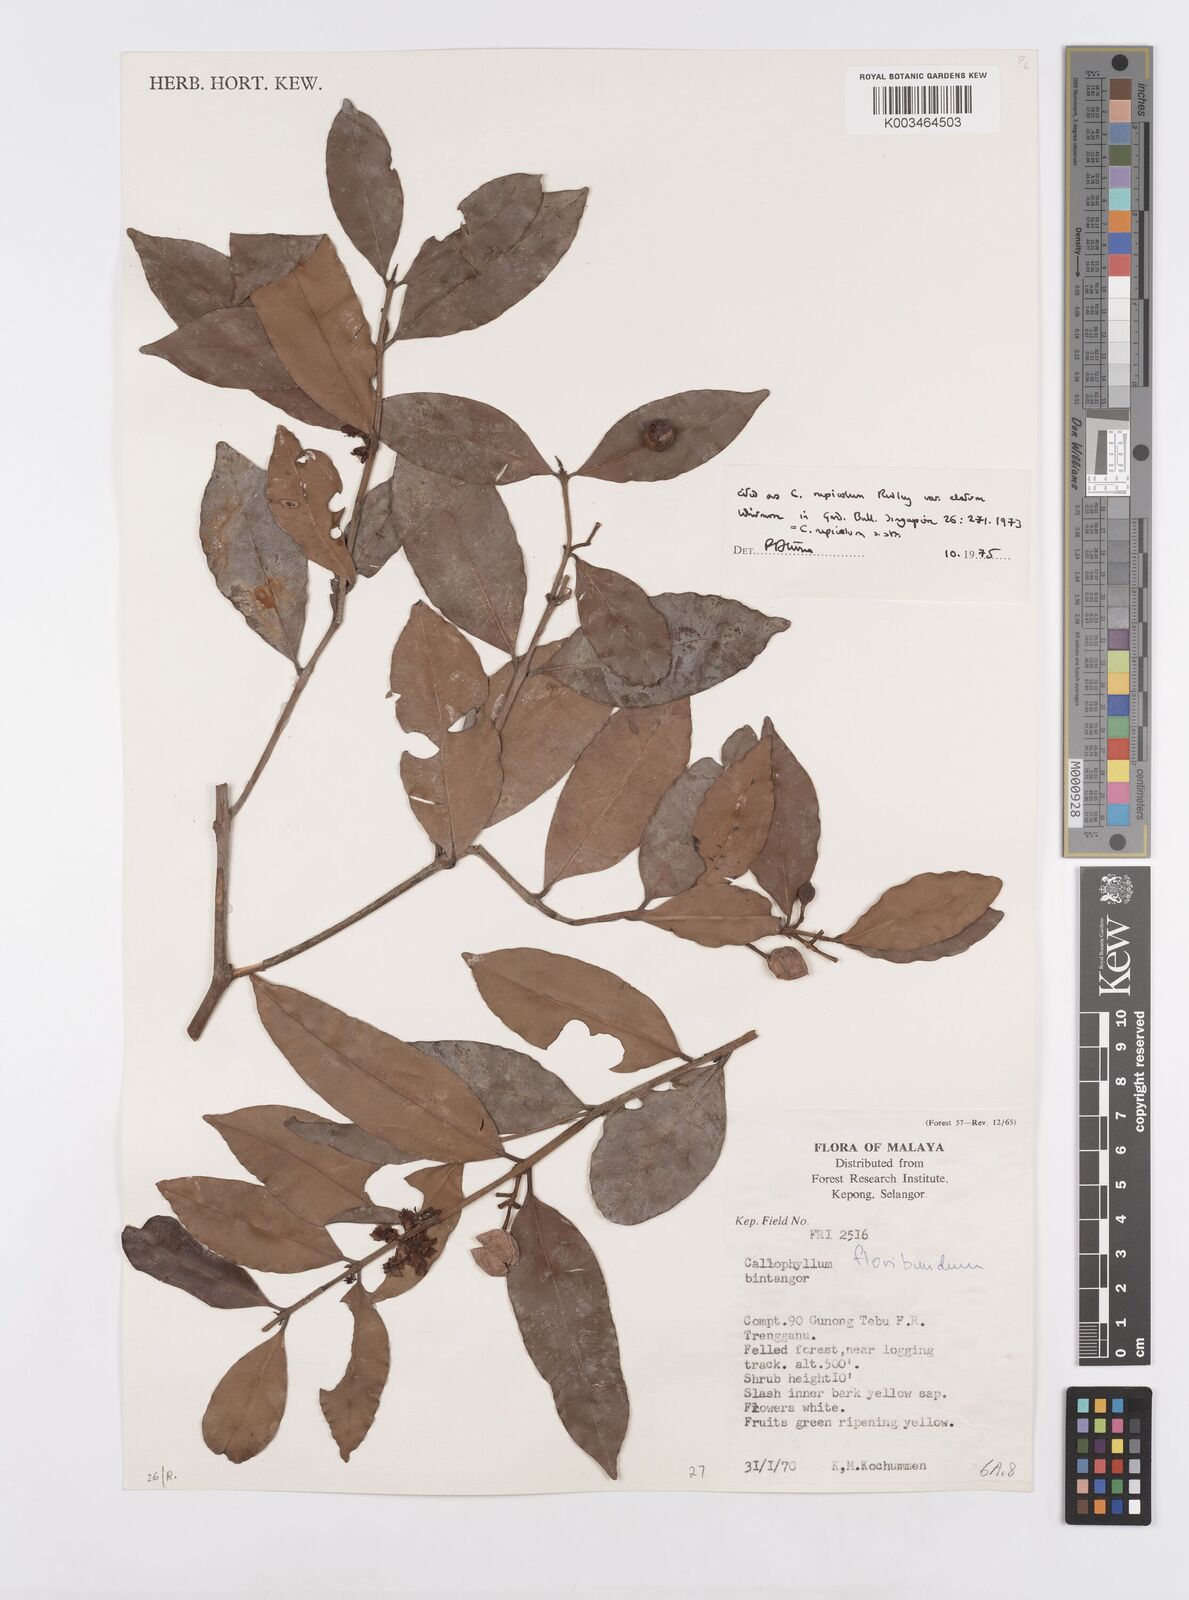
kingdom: Plantae
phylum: Tracheophyta
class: Magnoliopsida
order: Malpighiales
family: Calophyllaceae
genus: Calophyllum
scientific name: Calophyllum rupicola
